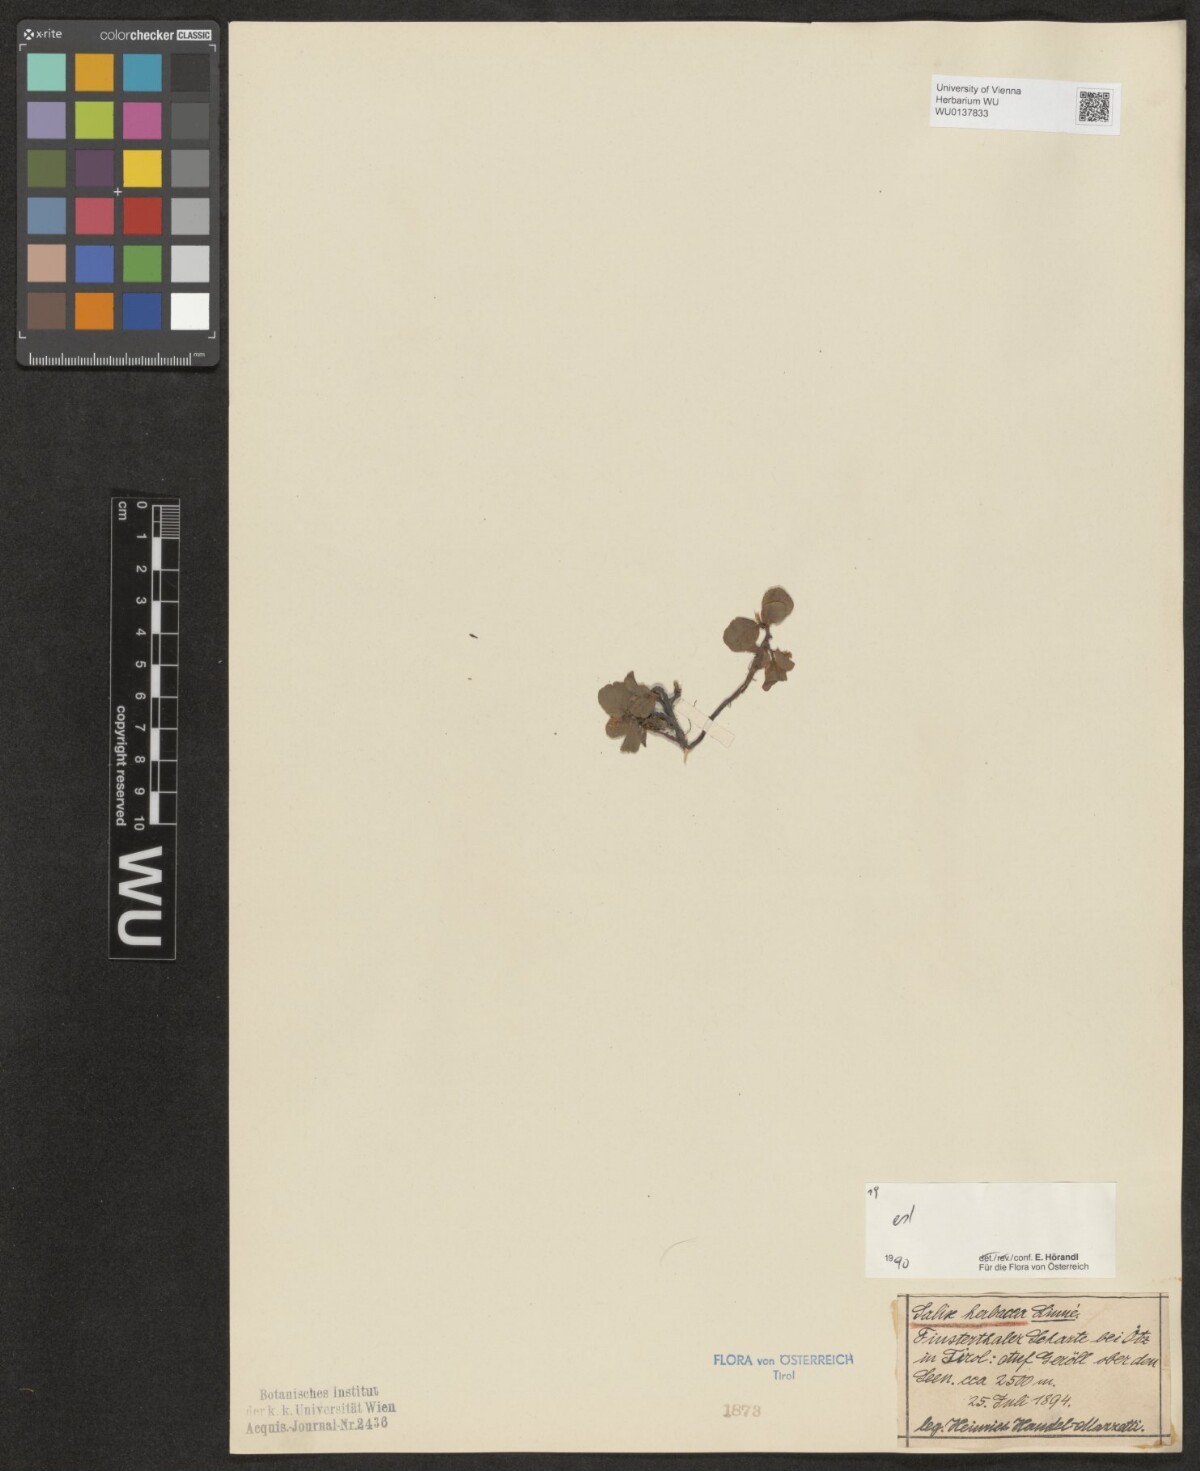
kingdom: Plantae
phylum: Tracheophyta
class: Magnoliopsida
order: Malpighiales
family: Salicaceae
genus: Salix
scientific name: Salix herbacea
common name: Dwarf willow
